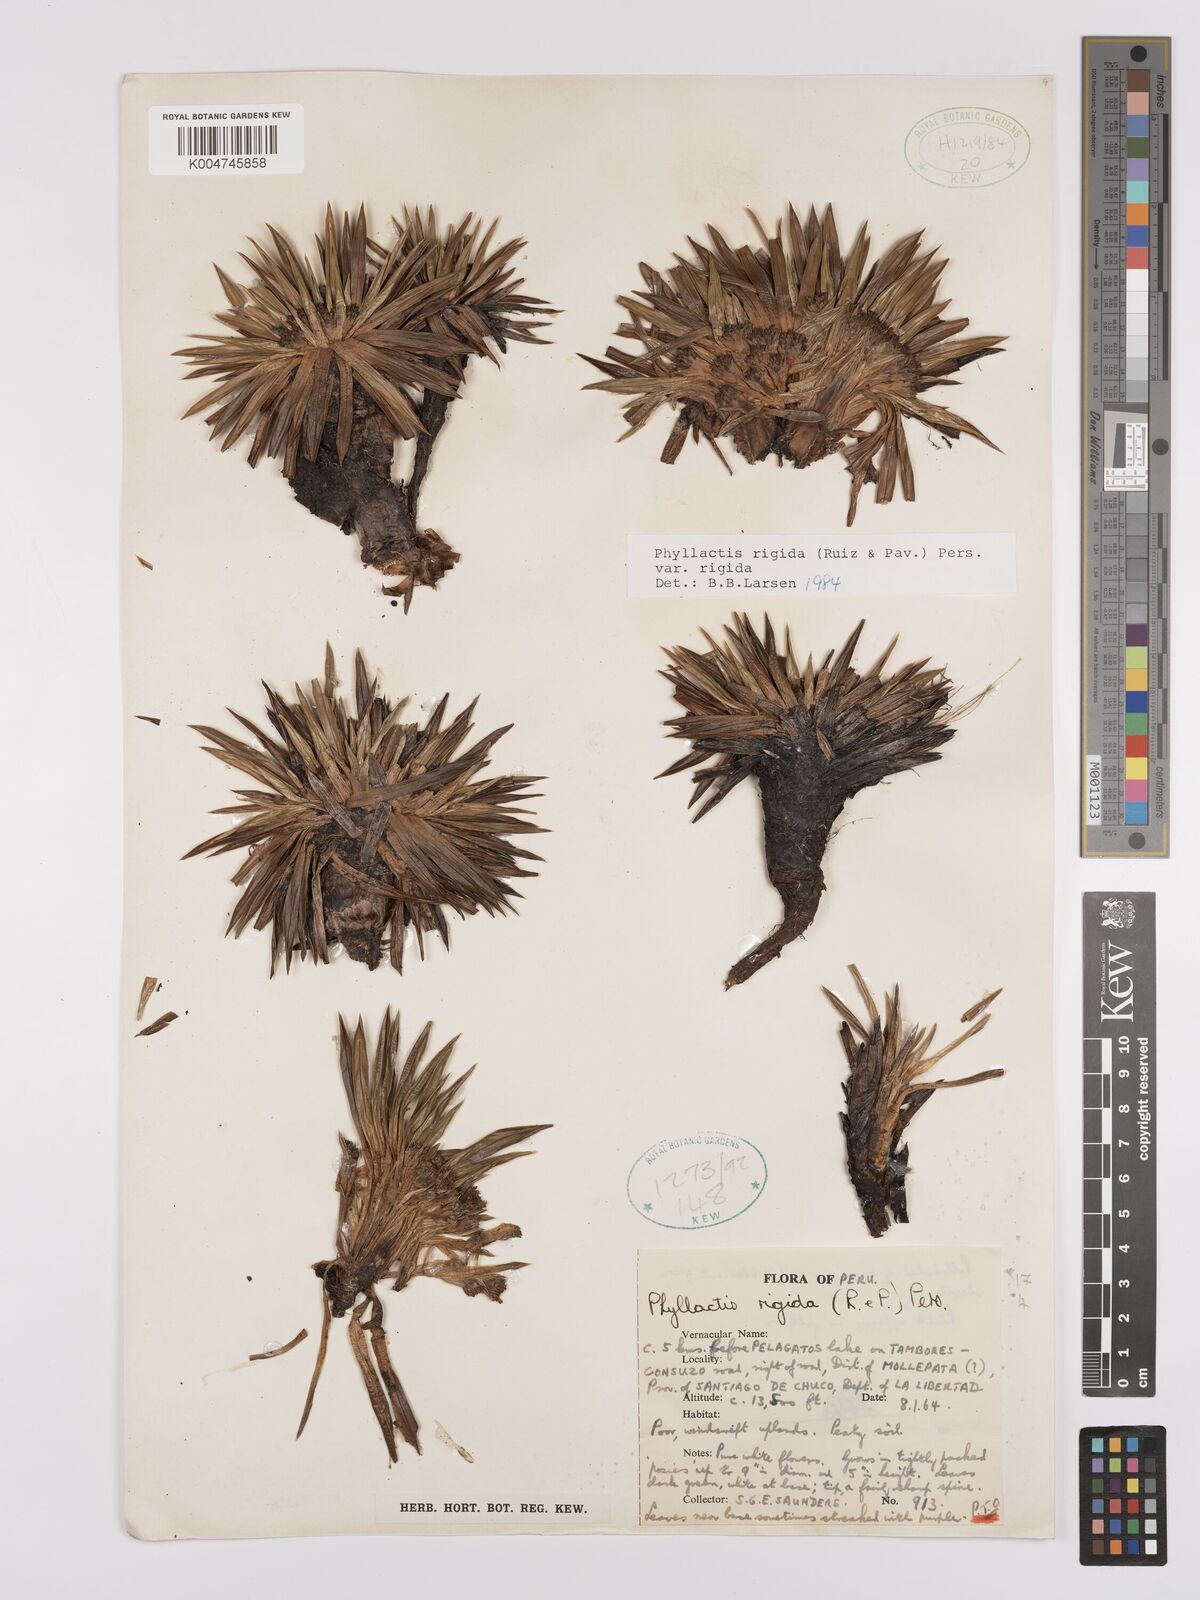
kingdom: Plantae
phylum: Tracheophyta
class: Magnoliopsida
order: Dipsacales
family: Caprifoliaceae
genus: Valeriana
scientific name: Valeriana rigida
